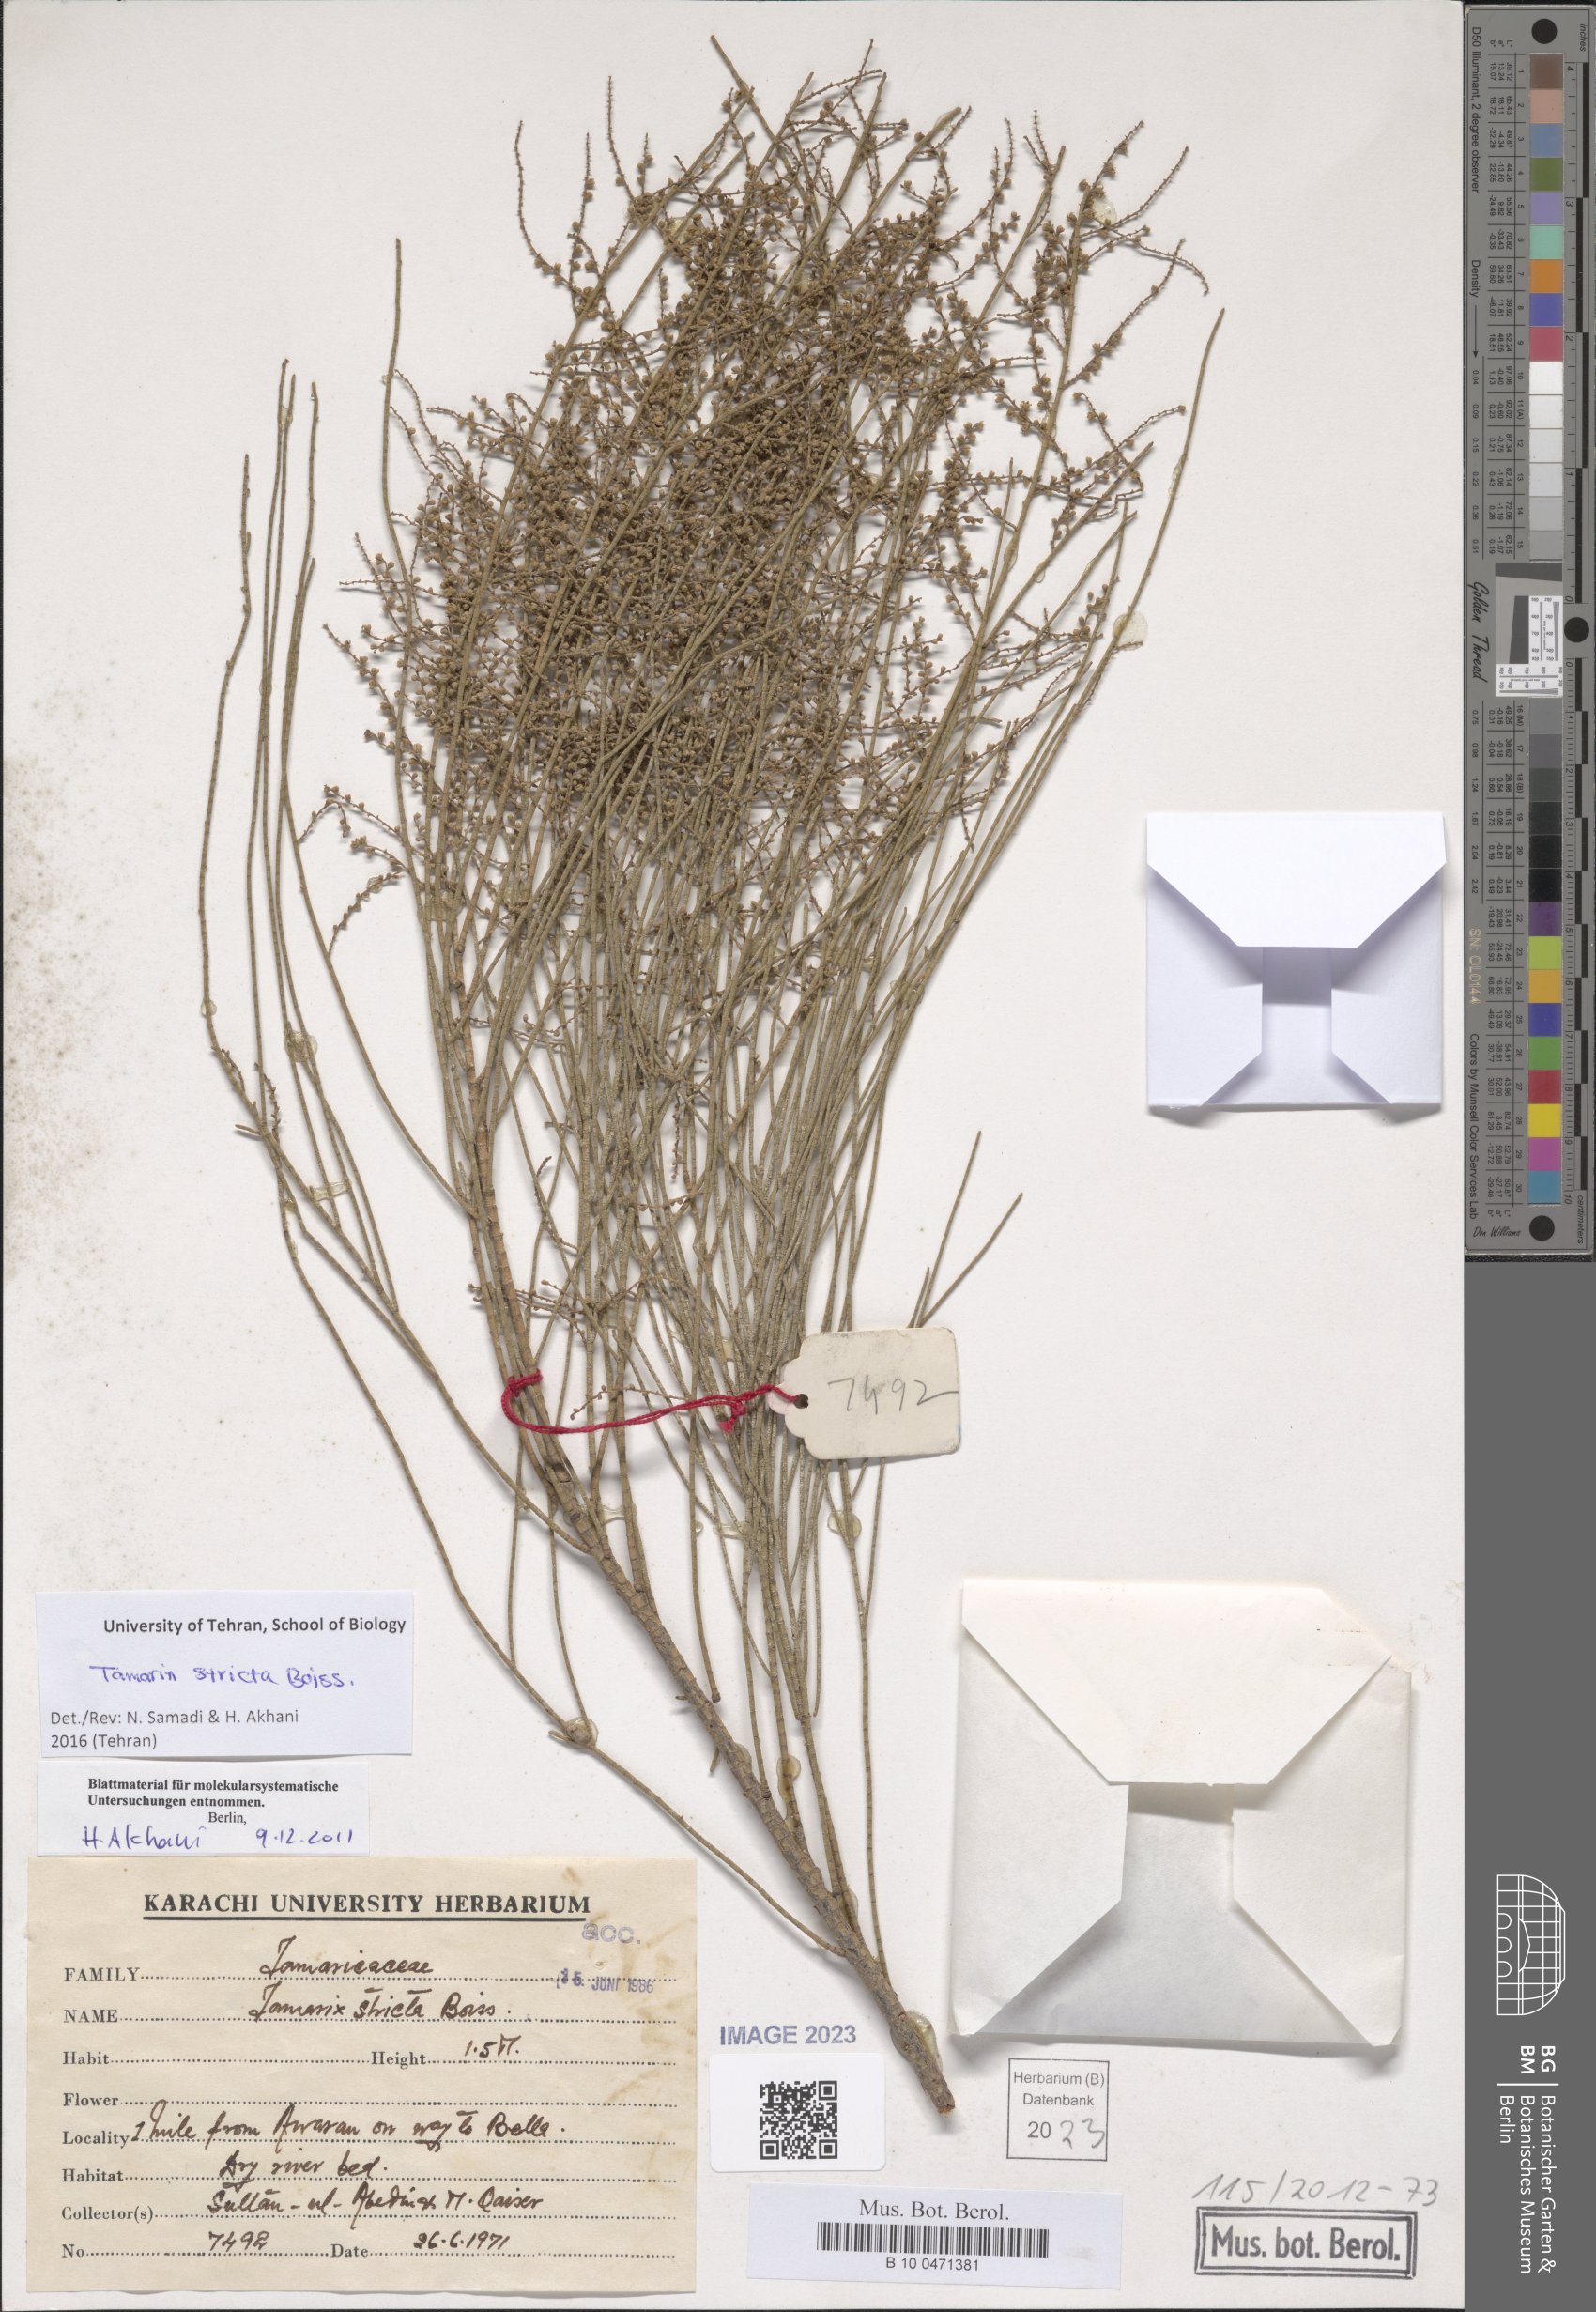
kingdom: Plantae
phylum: Tracheophyta
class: Magnoliopsida
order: Caryophyllales
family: Tamaricaceae
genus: Tamarix
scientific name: Tamarix stricta
